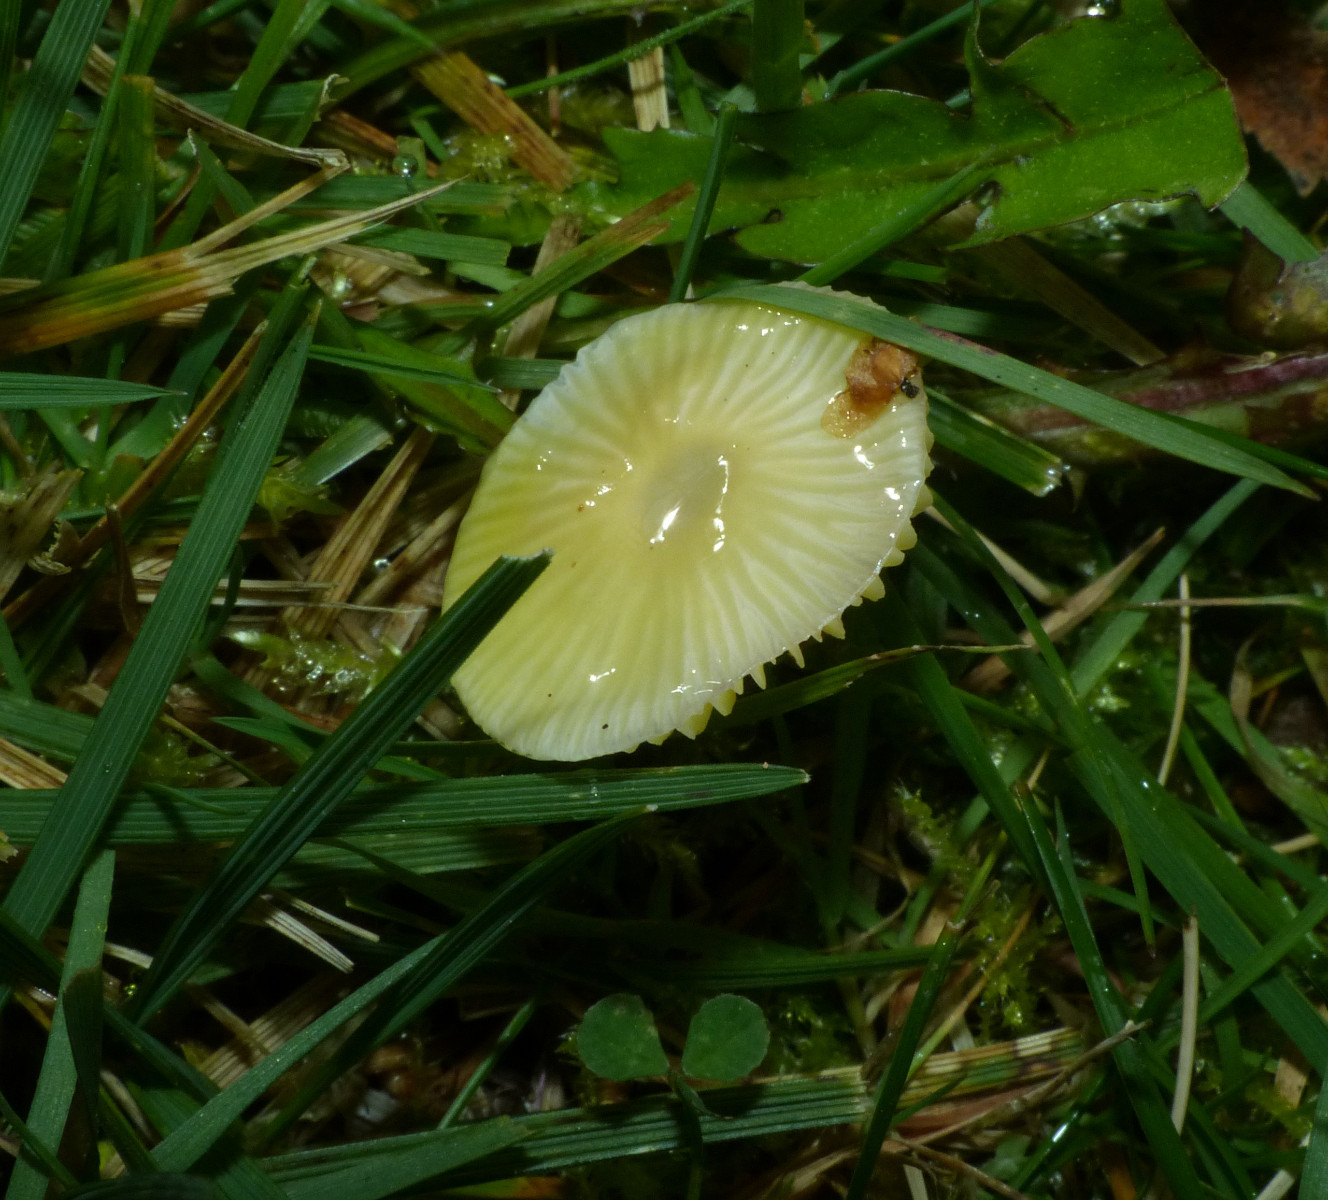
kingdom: Fungi
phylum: Basidiomycota
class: Agaricomycetes
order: Agaricales
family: Hygrophoraceae
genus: Hygrocybe
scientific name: Hygrocybe glutinipes
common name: slimstokket vokshat
